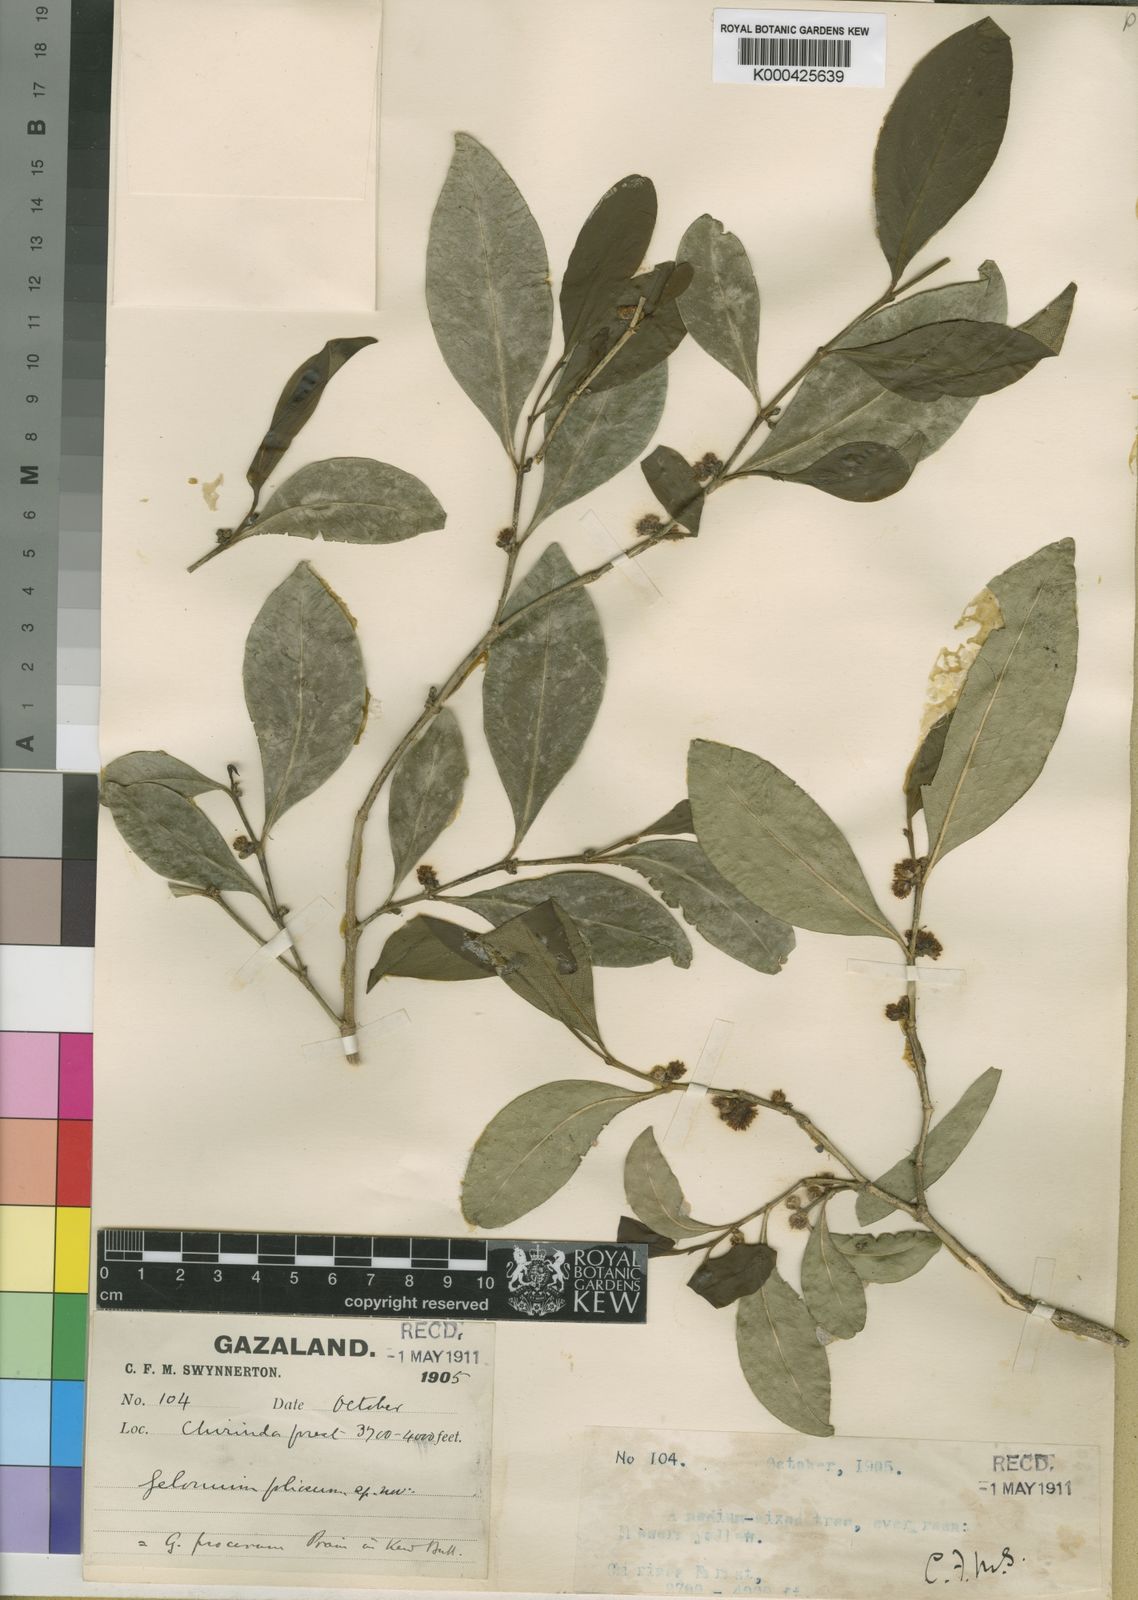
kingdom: Plantae
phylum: Tracheophyta
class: Magnoliopsida
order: Malpighiales
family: Euphorbiaceae
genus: Suregada
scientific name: Suregada procera
